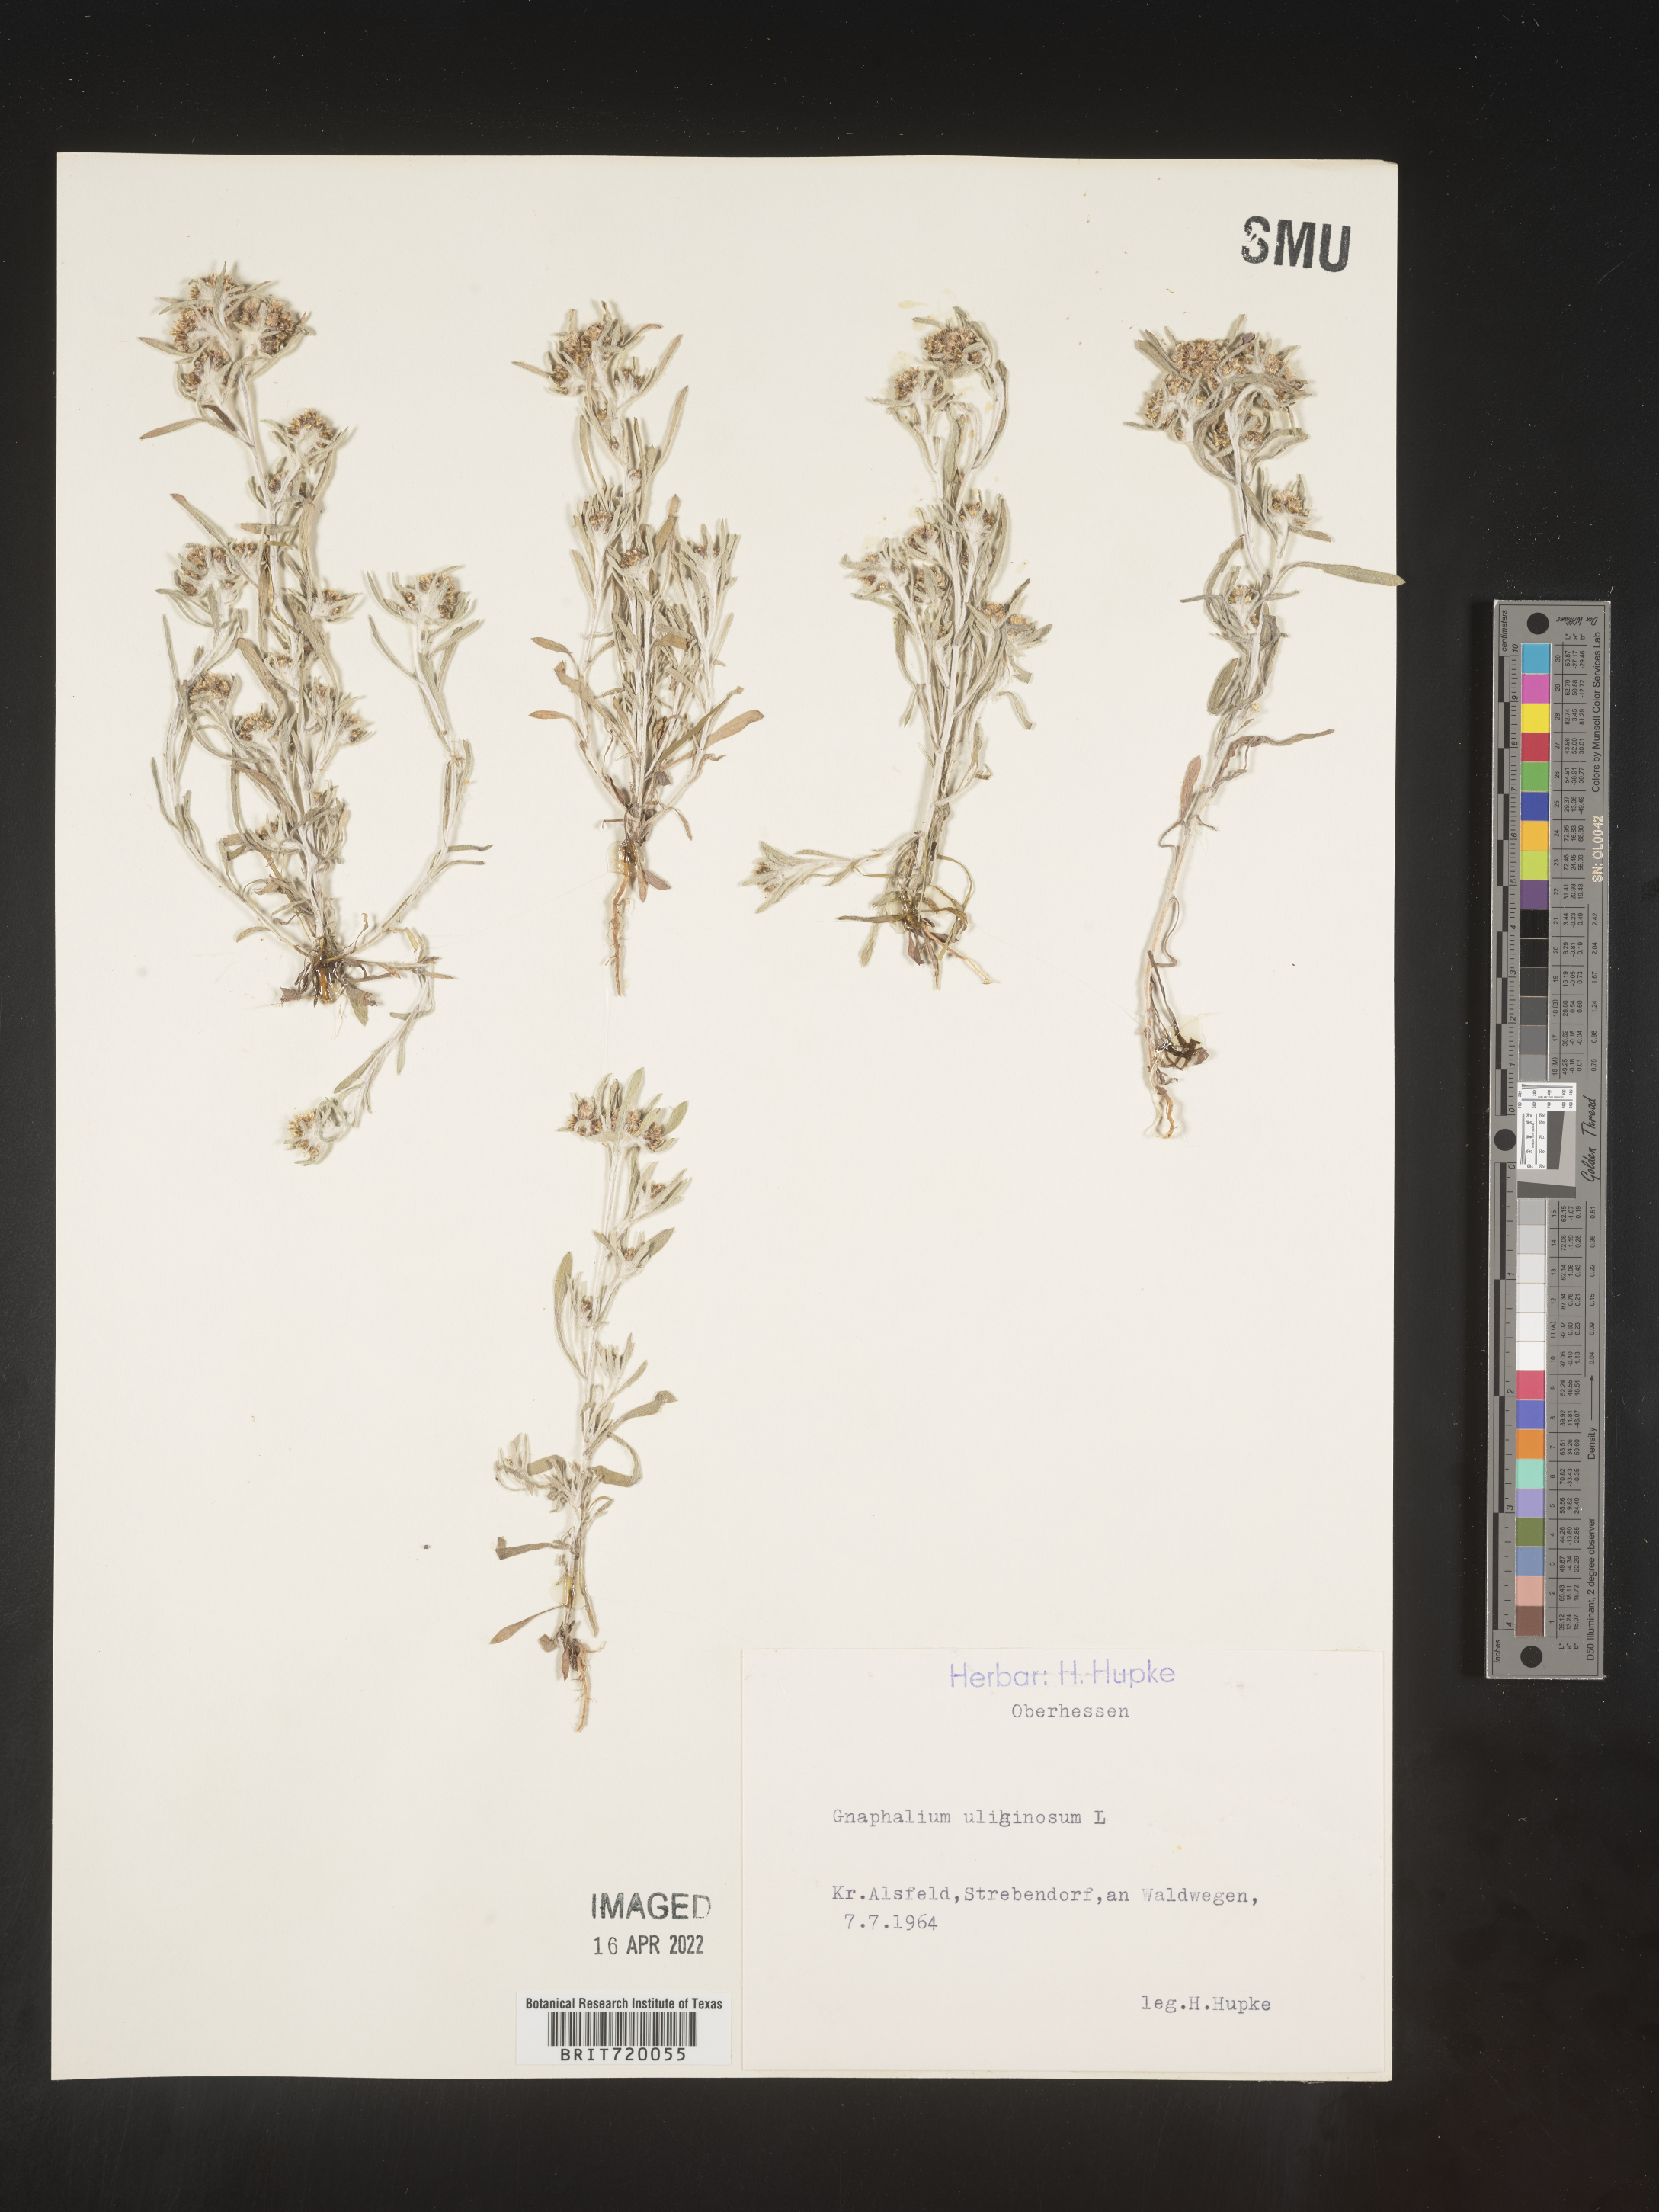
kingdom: Plantae
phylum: Tracheophyta
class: Magnoliopsida
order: Asterales
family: Asteraceae
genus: Gnaphalium
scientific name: Gnaphalium
